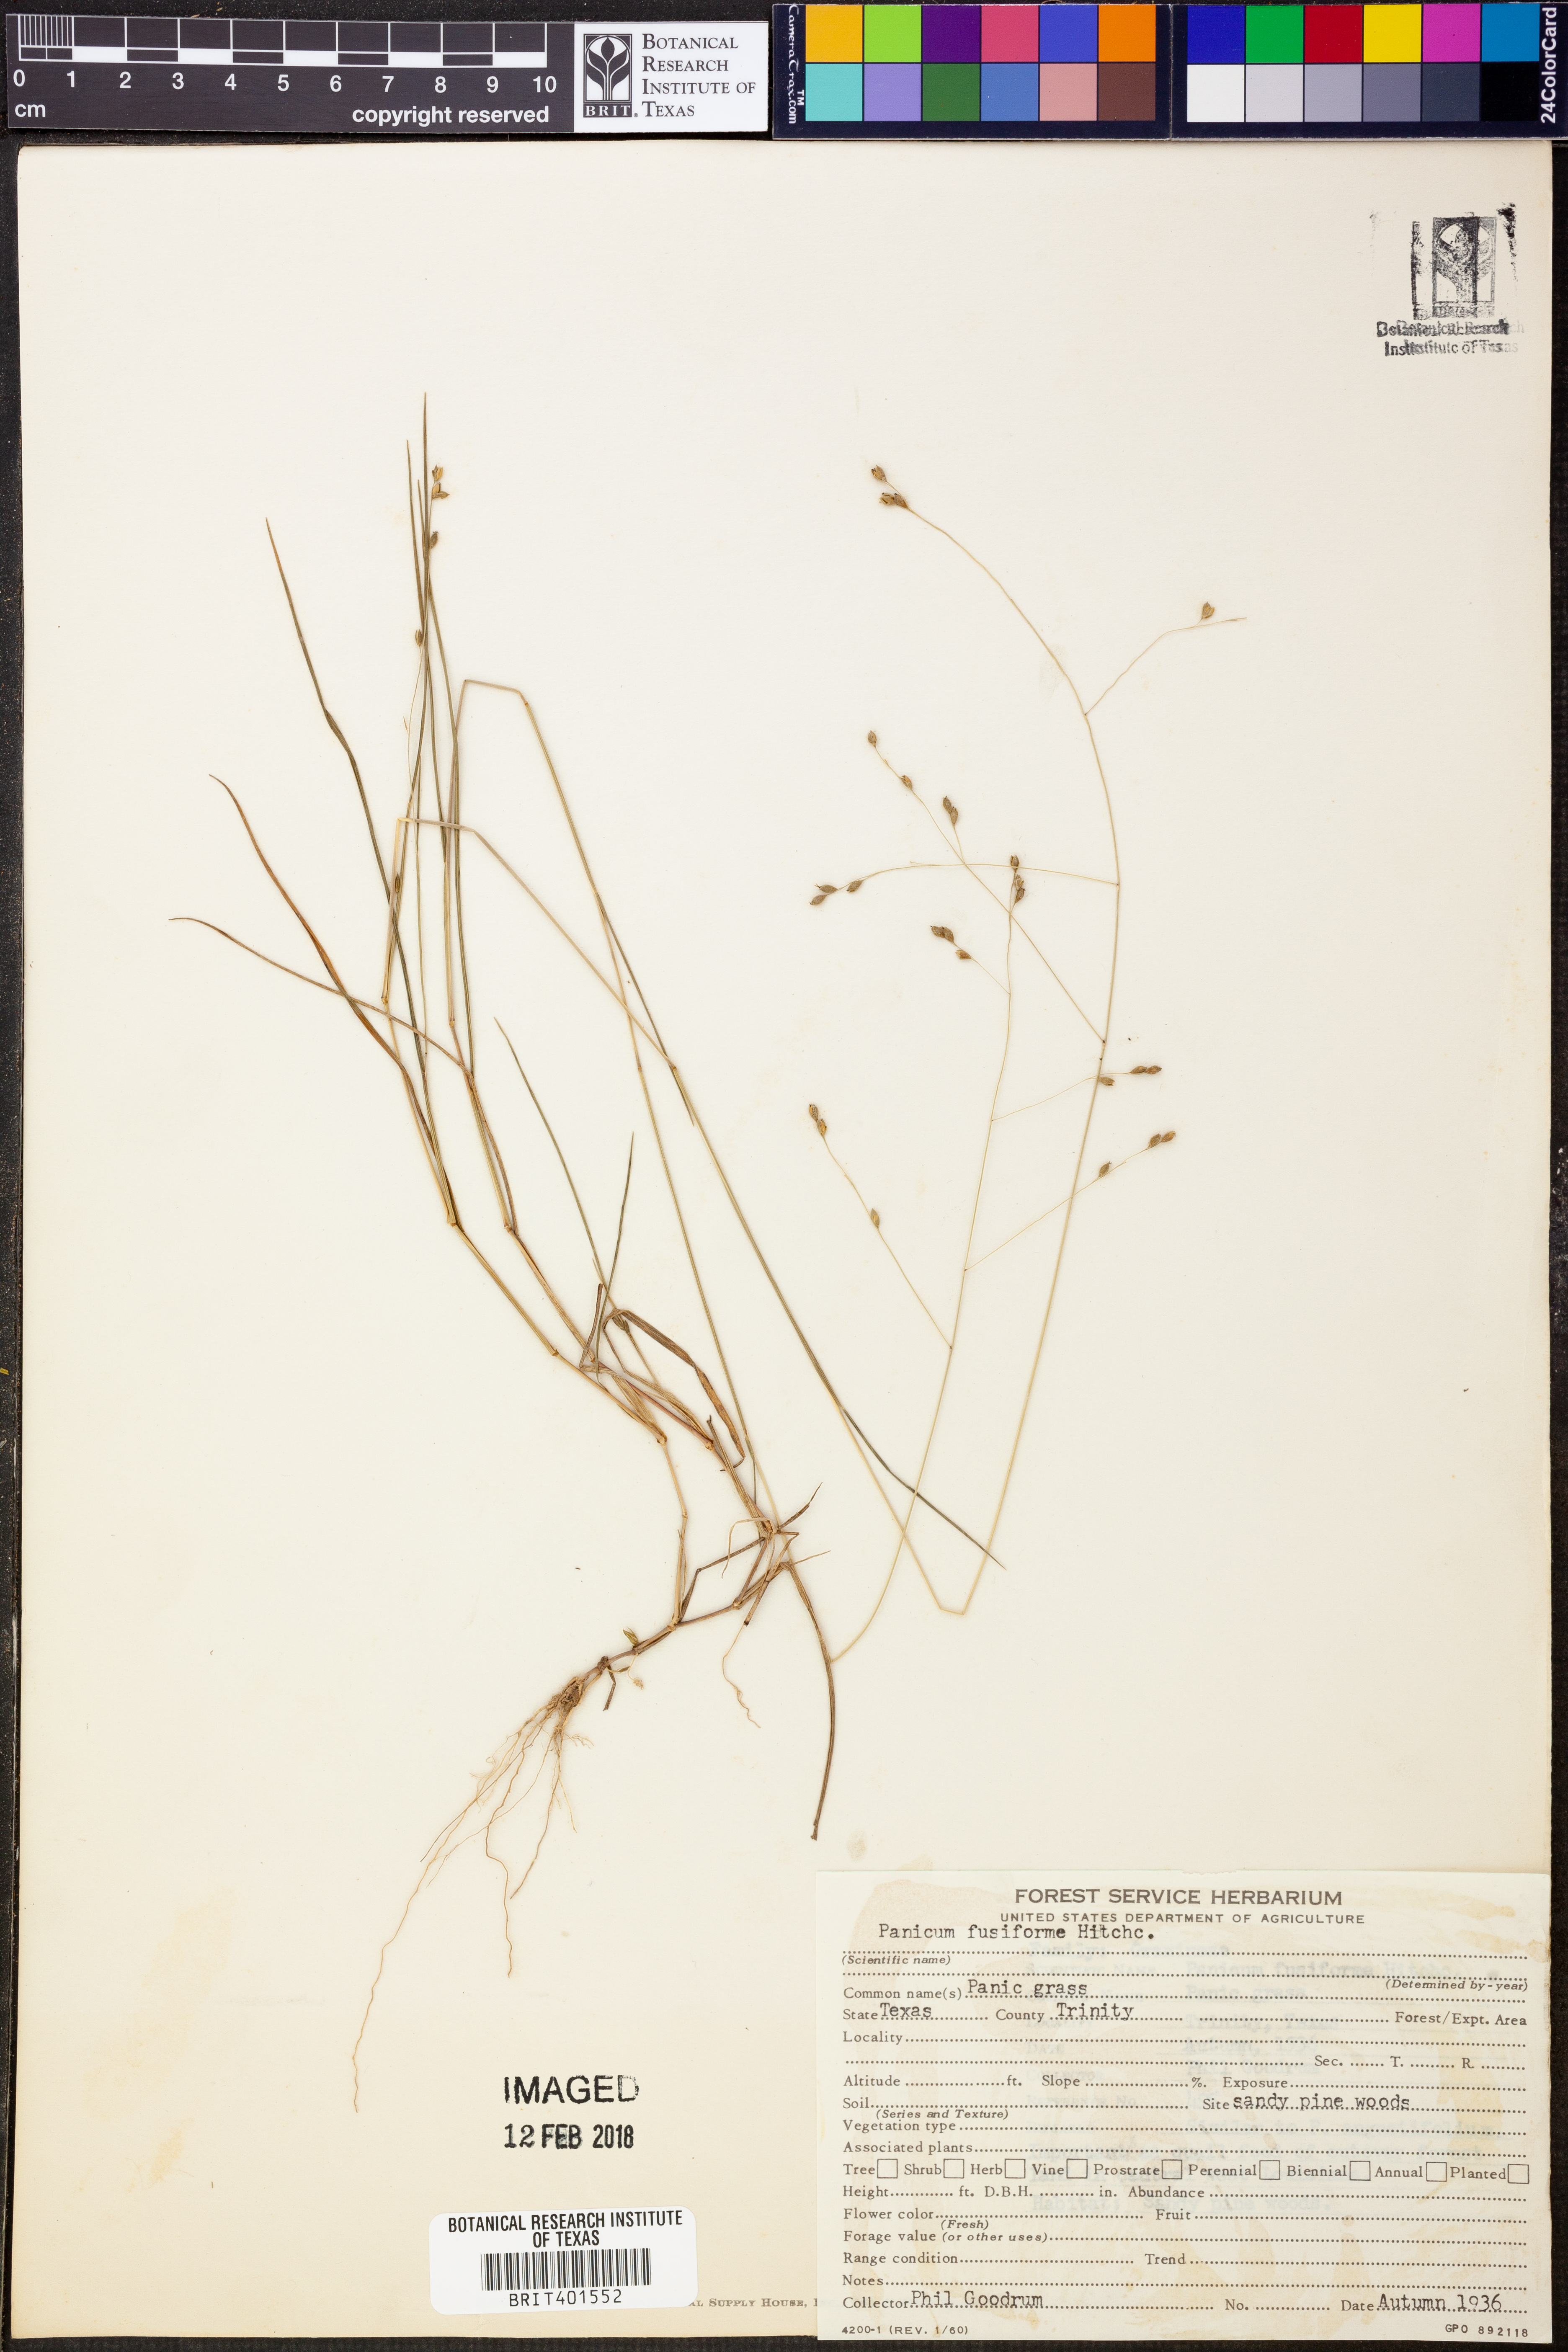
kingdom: Plantae
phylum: Tracheophyta
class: Liliopsida
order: Poales
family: Poaceae
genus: Dichanthelium
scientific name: Dichanthelium aciculare
